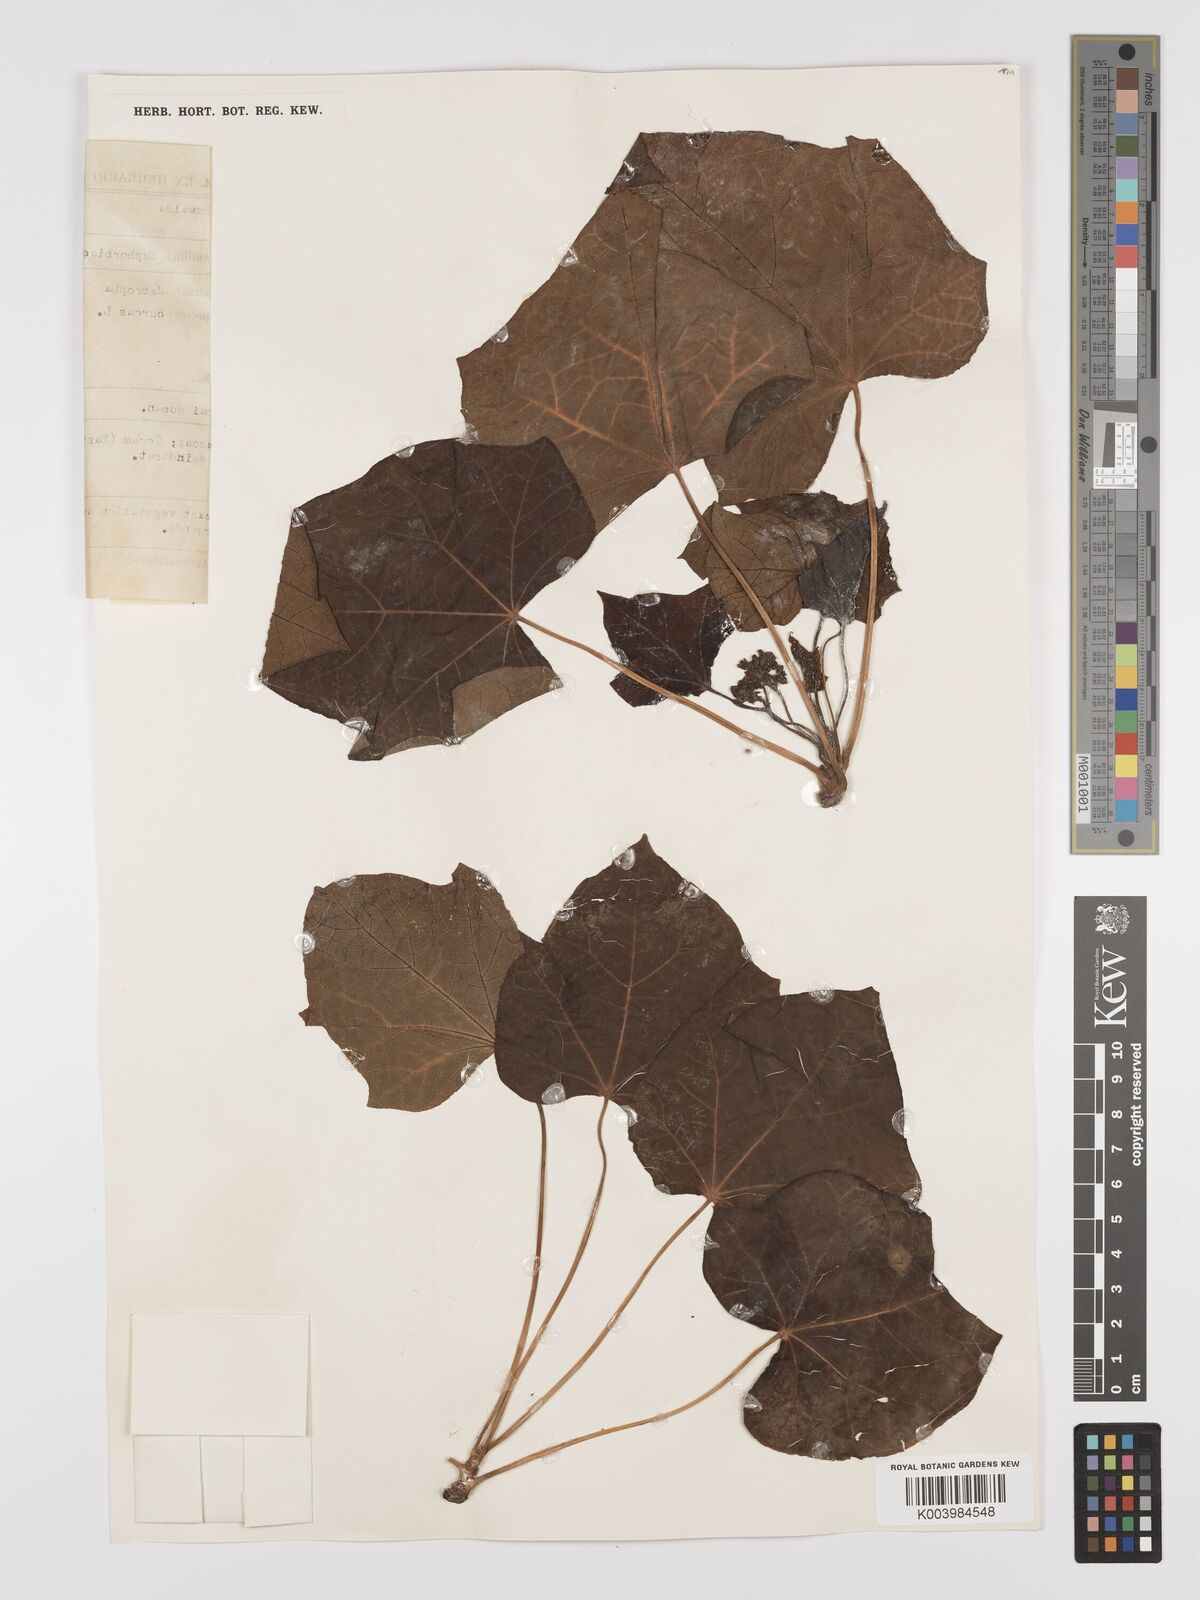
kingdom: Plantae
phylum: Tracheophyta
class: Magnoliopsida
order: Malpighiales
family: Euphorbiaceae
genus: Jatropha
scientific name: Jatropha curcas
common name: Barbados nut
